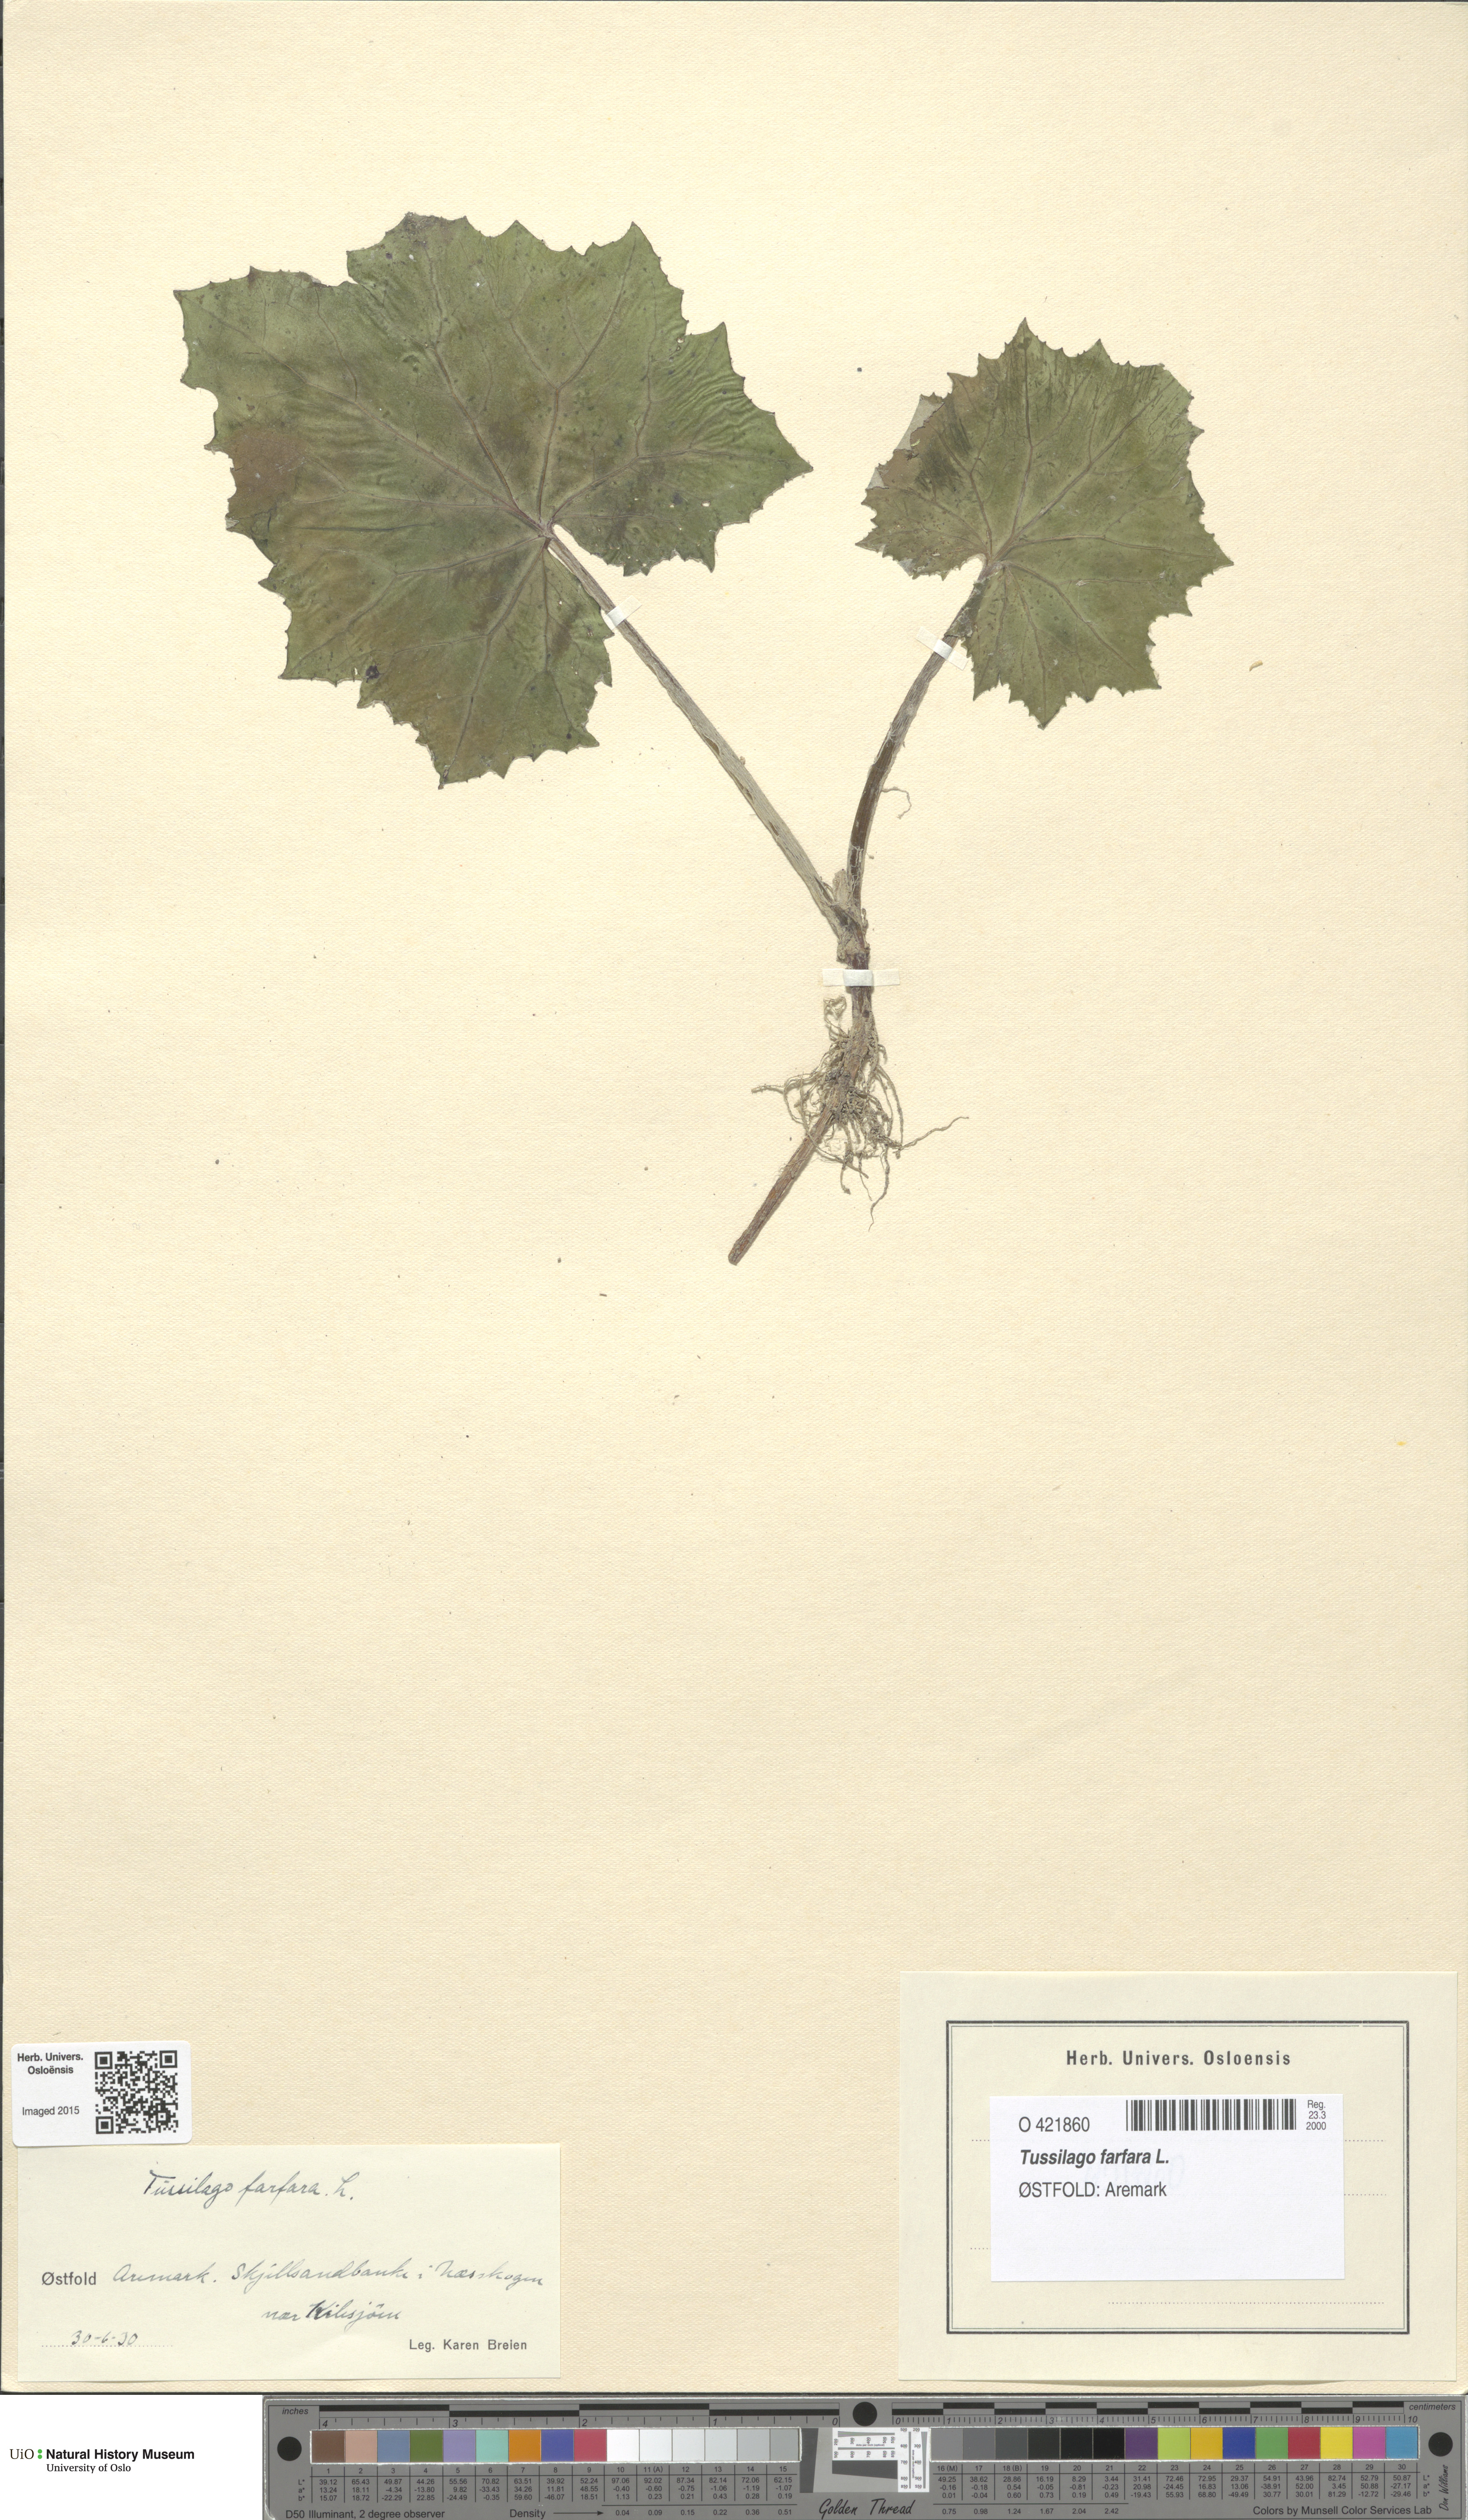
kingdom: Plantae
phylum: Tracheophyta
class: Magnoliopsida
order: Asterales
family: Asteraceae
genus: Tussilago
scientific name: Tussilago farfara
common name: Coltsfoot
